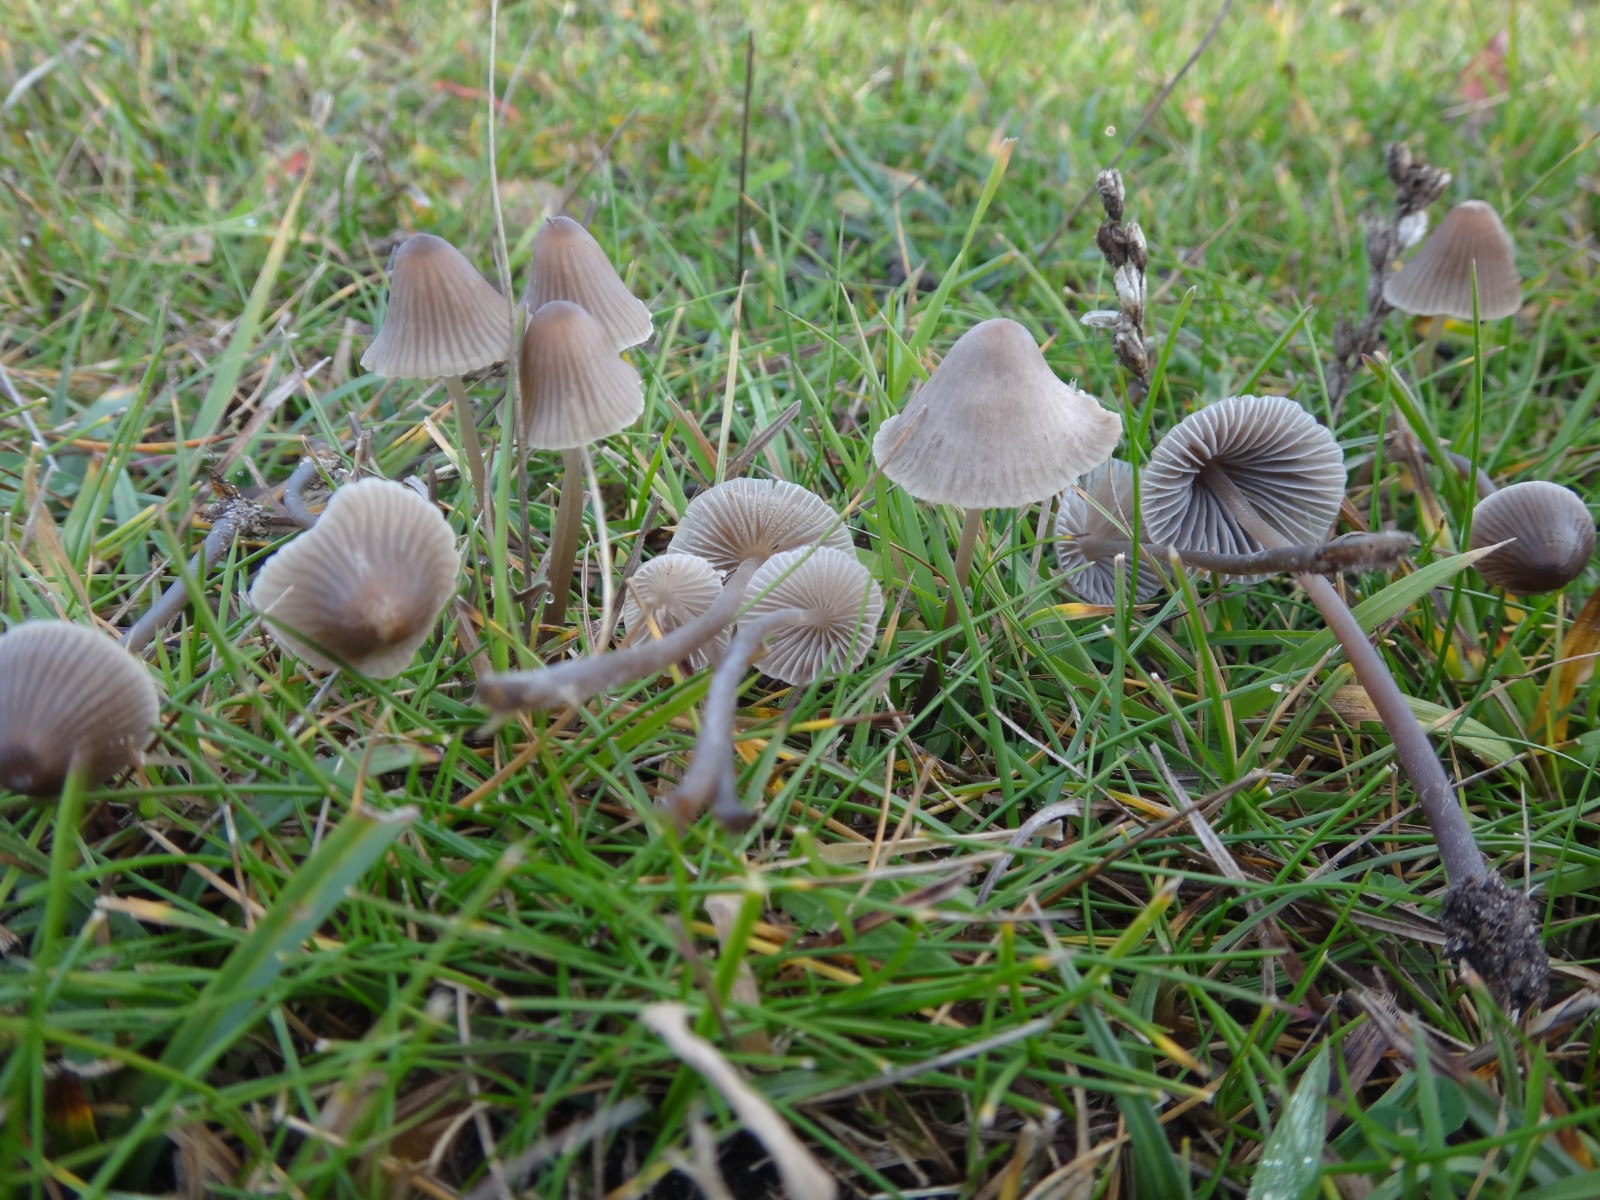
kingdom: Fungi
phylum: Basidiomycota
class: Agaricomycetes
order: Agaricales
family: Mycenaceae
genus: Mycena
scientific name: Mycena filopes
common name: jod-huesvamp
